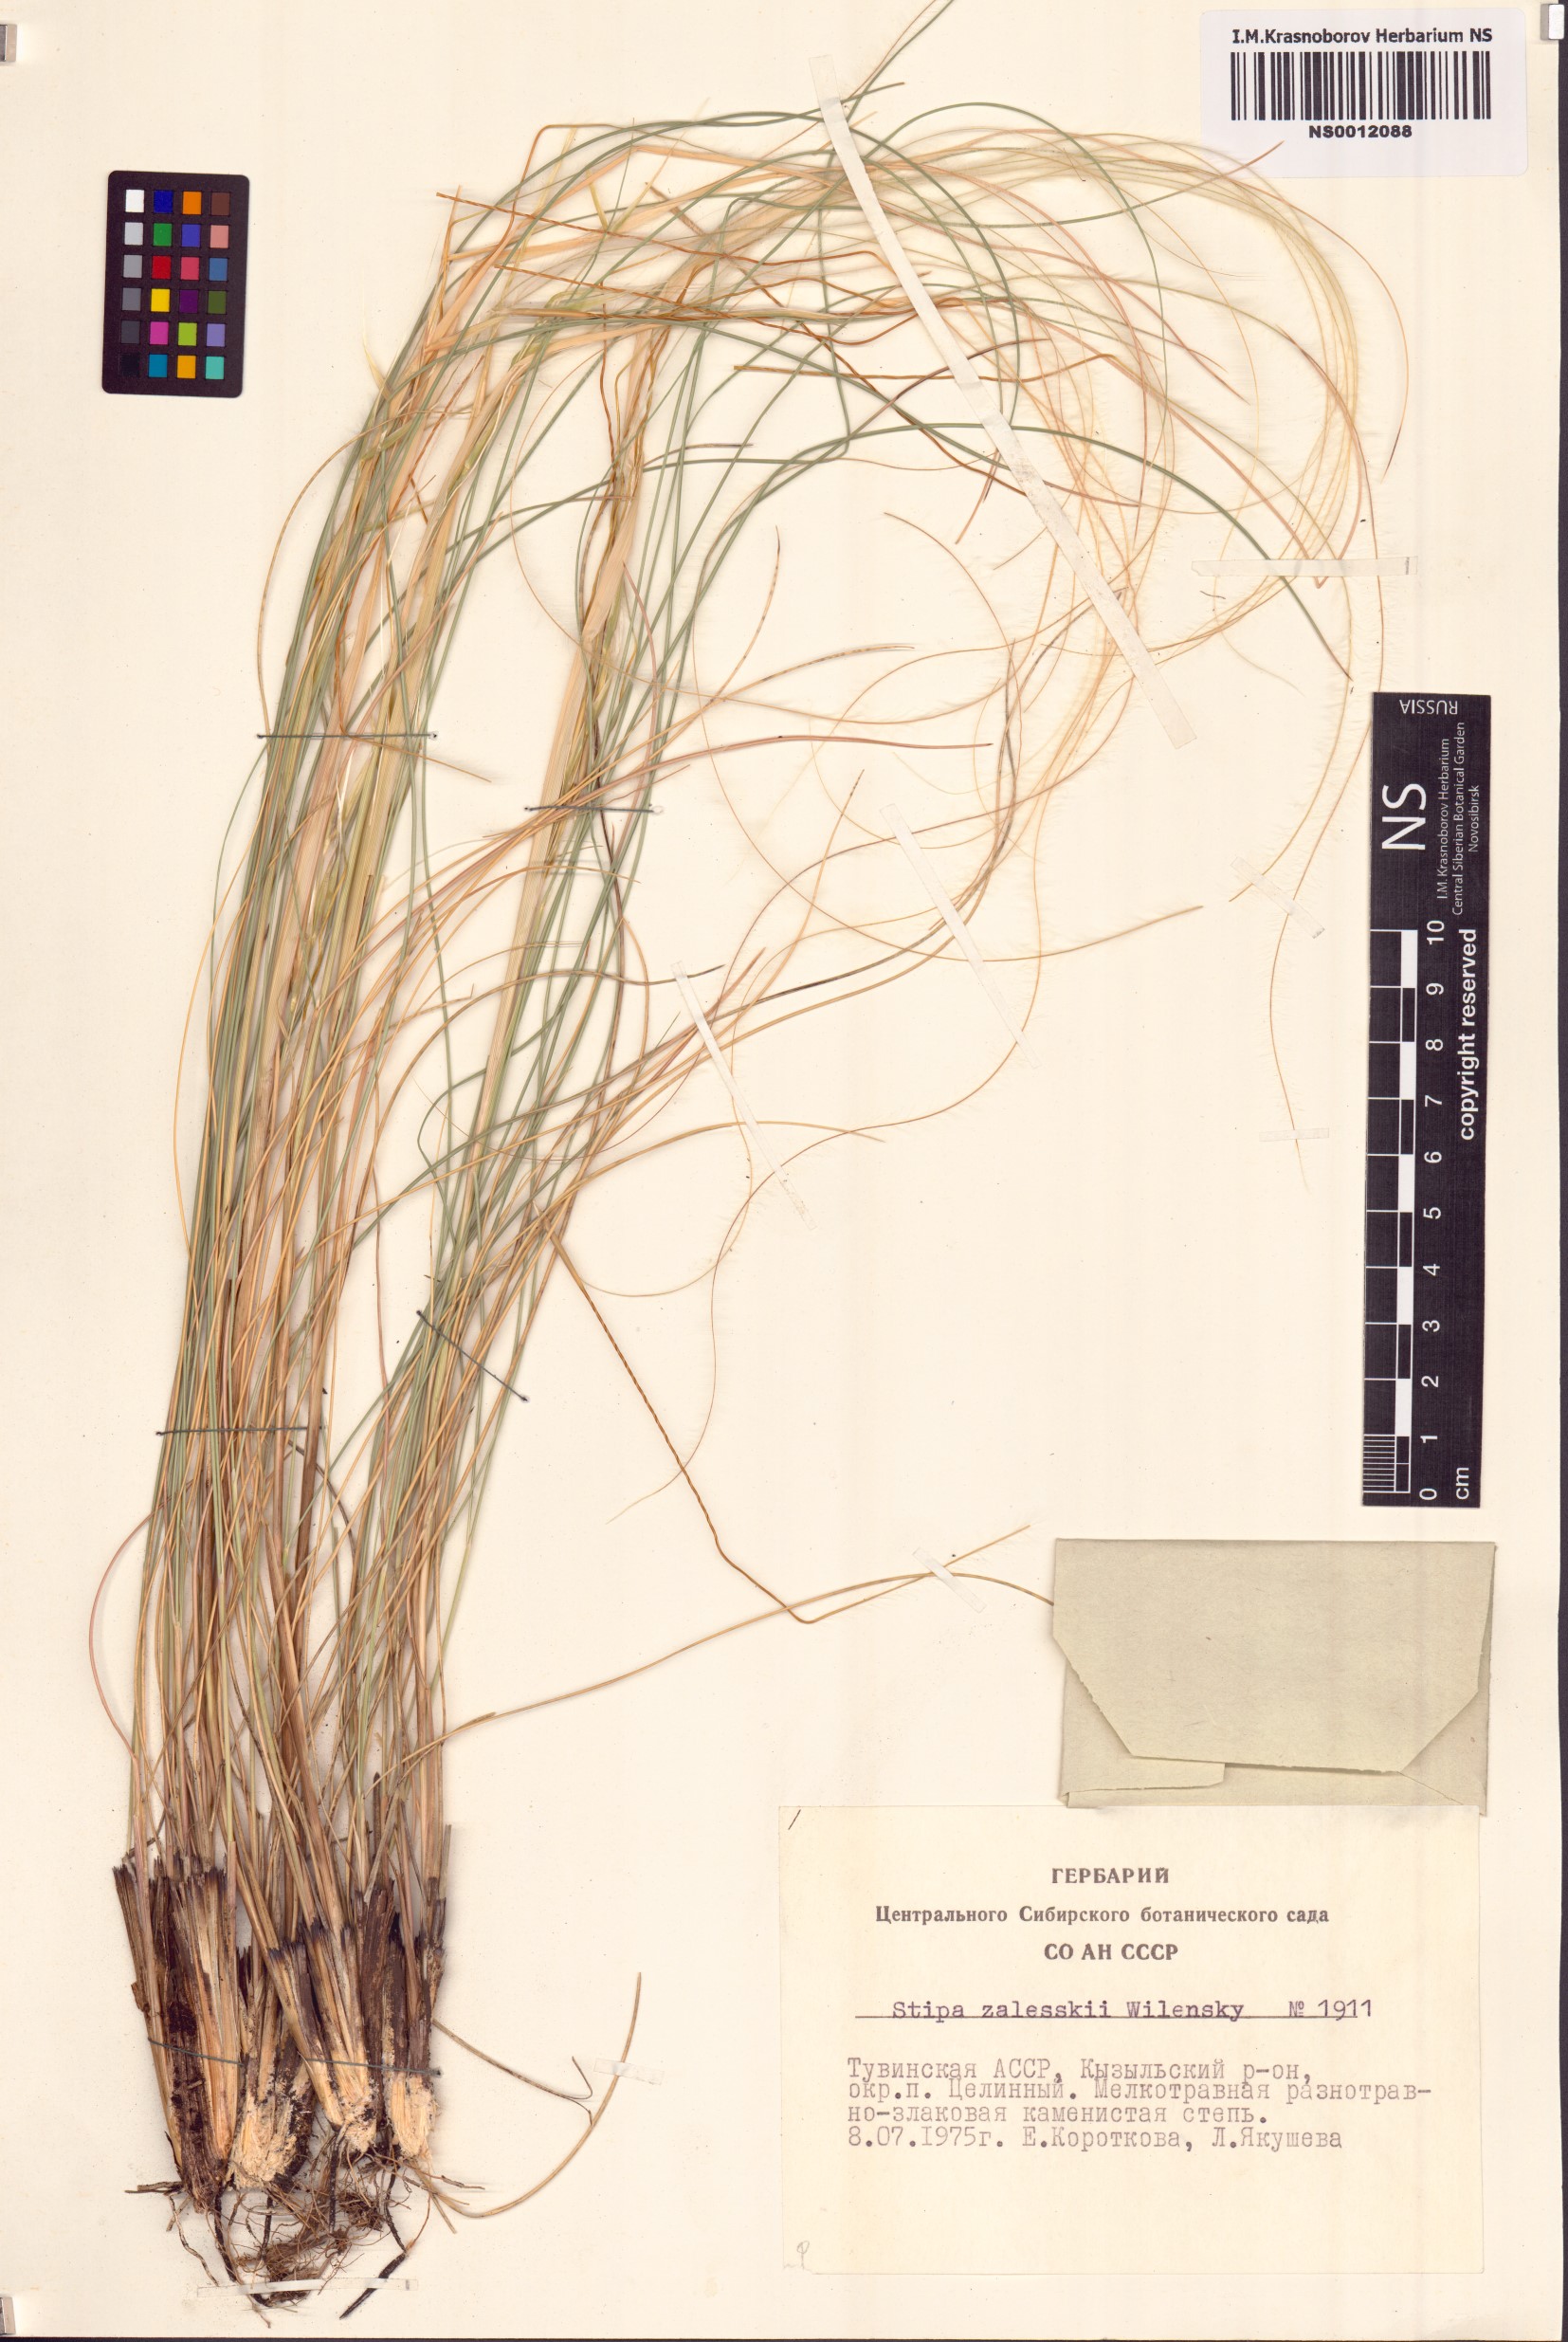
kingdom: Plantae
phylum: Tracheophyta
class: Liliopsida
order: Poales
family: Poaceae
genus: Stipa
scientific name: Stipa zalesskii
